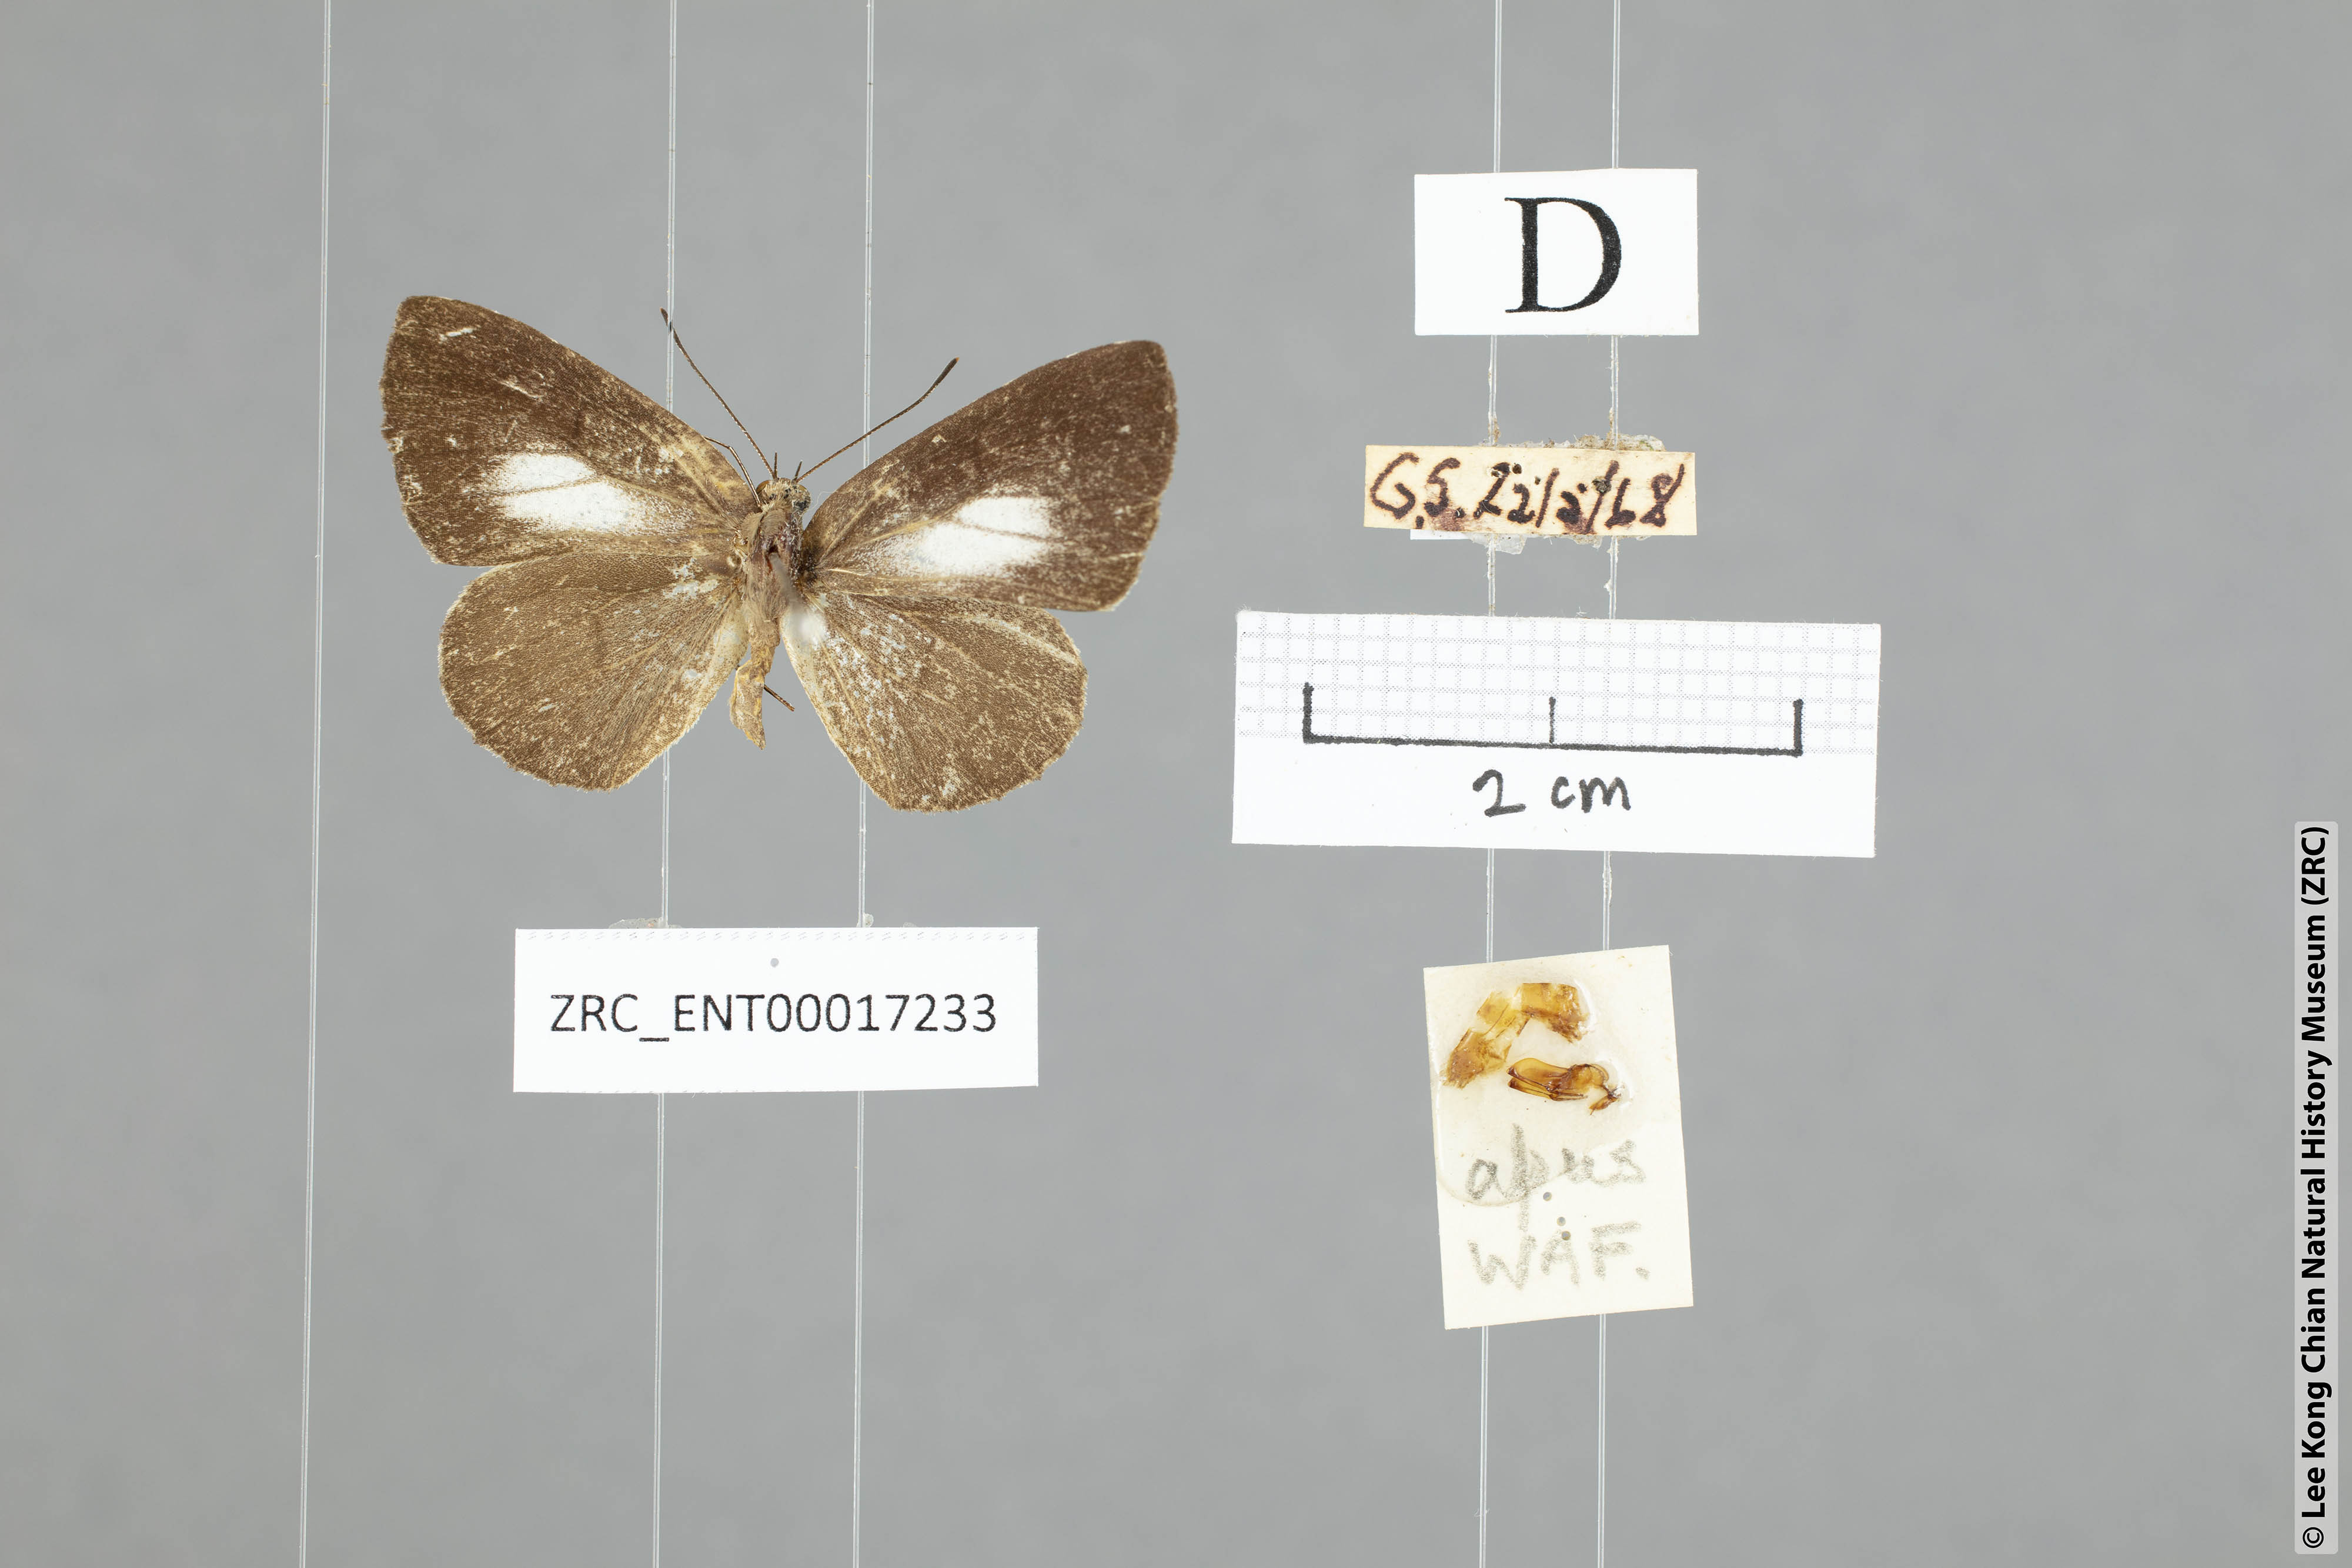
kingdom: Animalia
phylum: Arthropoda
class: Insecta
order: Lepidoptera
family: Lycaenidae
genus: Allotinus
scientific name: Allotinus fallax
